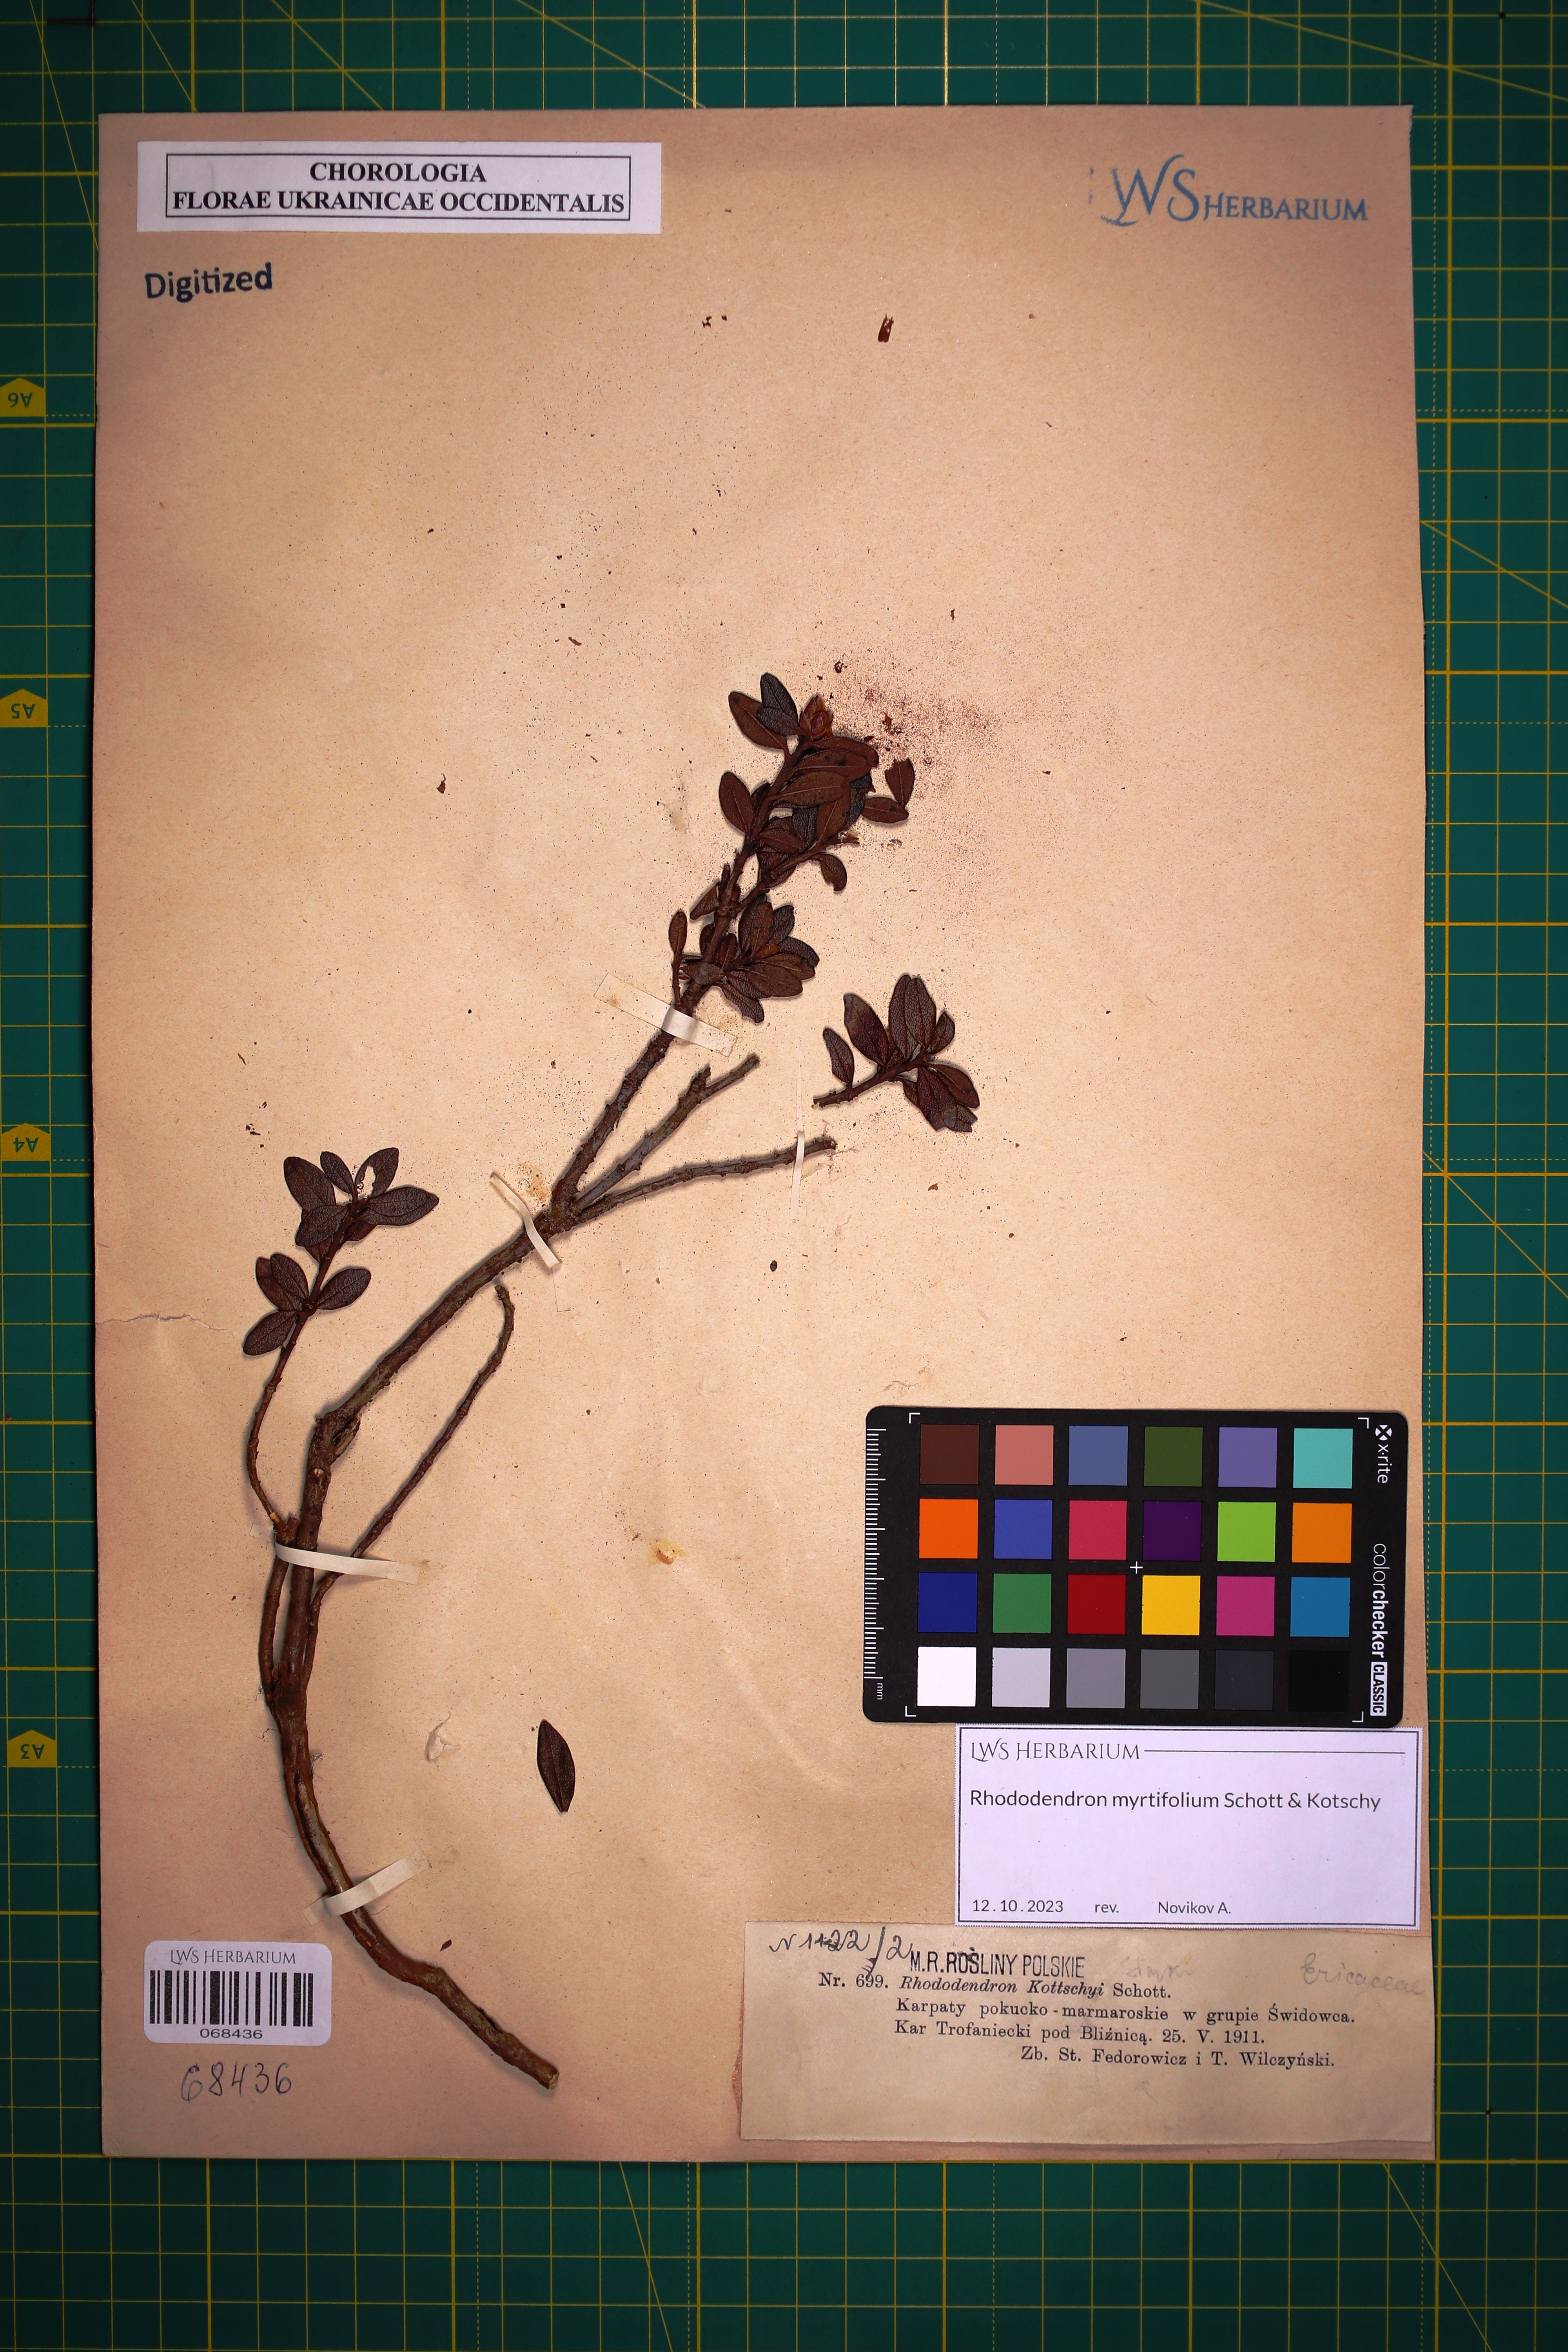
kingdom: Plantae
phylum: Tracheophyta
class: Magnoliopsida
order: Ericales
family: Ericaceae
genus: Rhododendron
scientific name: Rhododendron kotschyi
